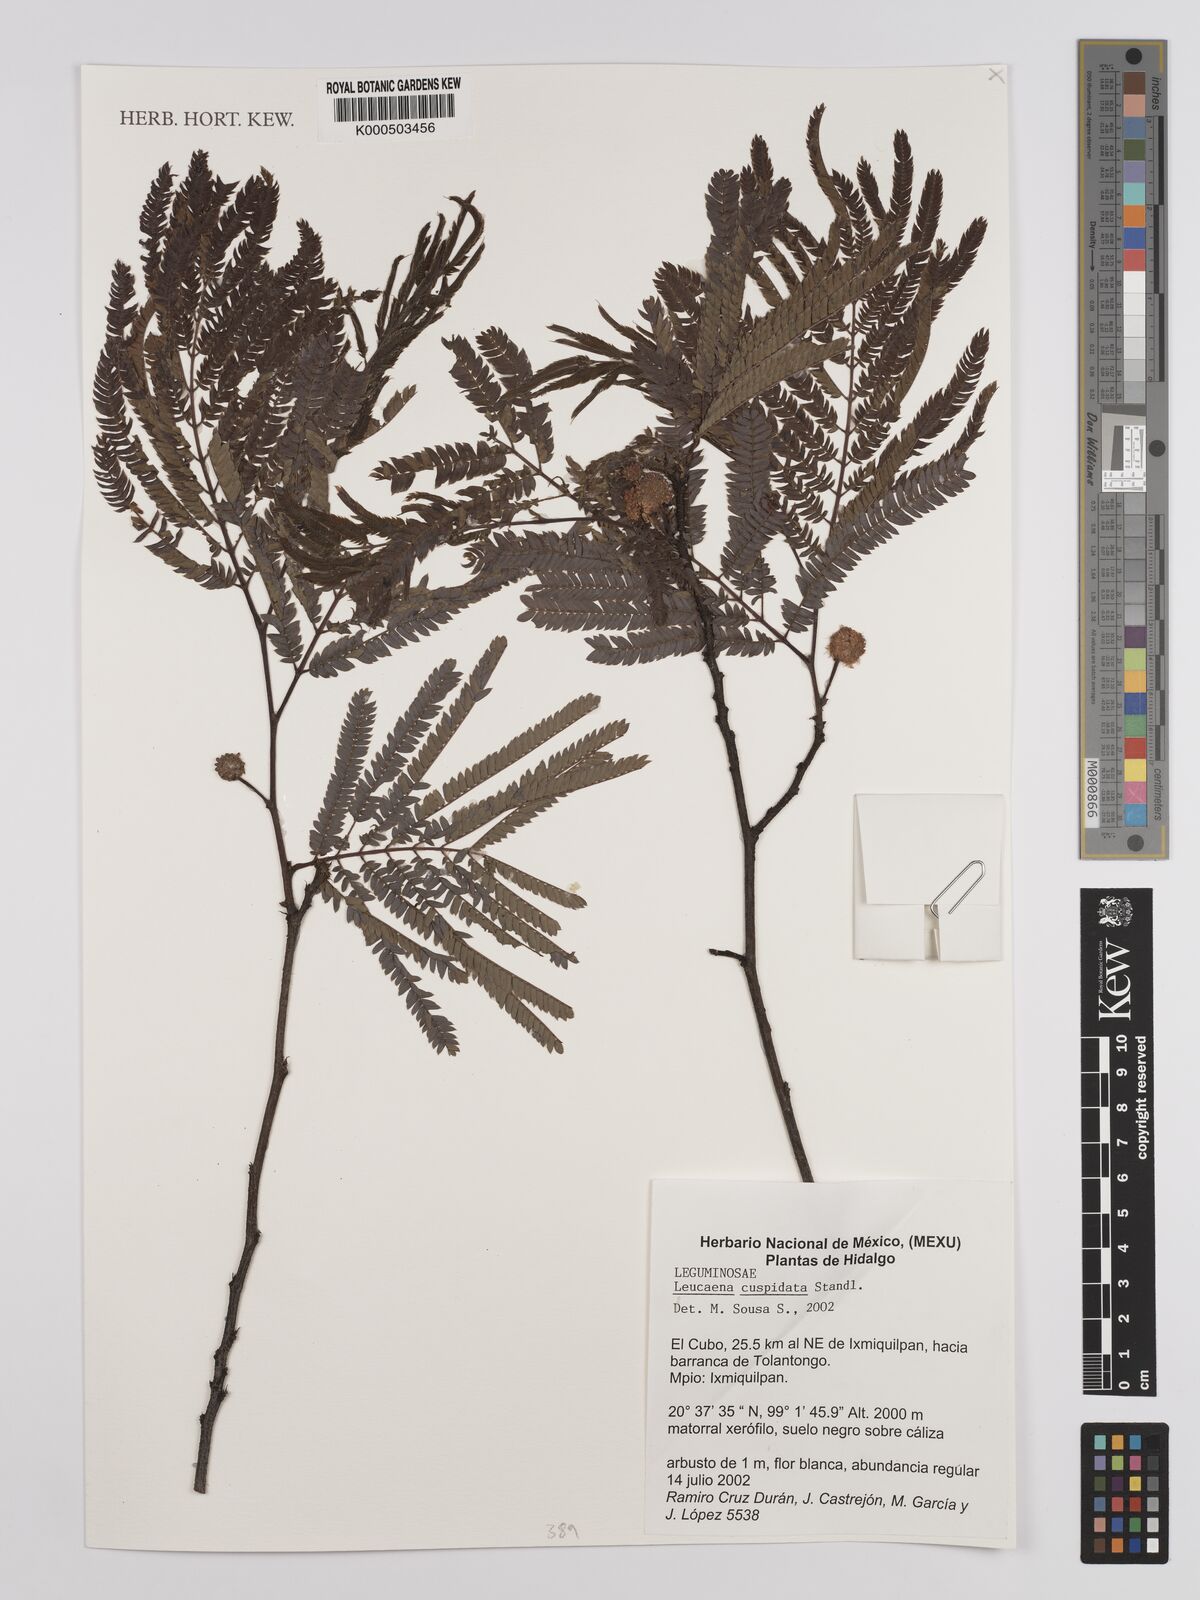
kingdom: Plantae
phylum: Tracheophyta
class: Magnoliopsida
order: Fabales
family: Fabaceae
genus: Leucaena
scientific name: Leucaena cuspidata
